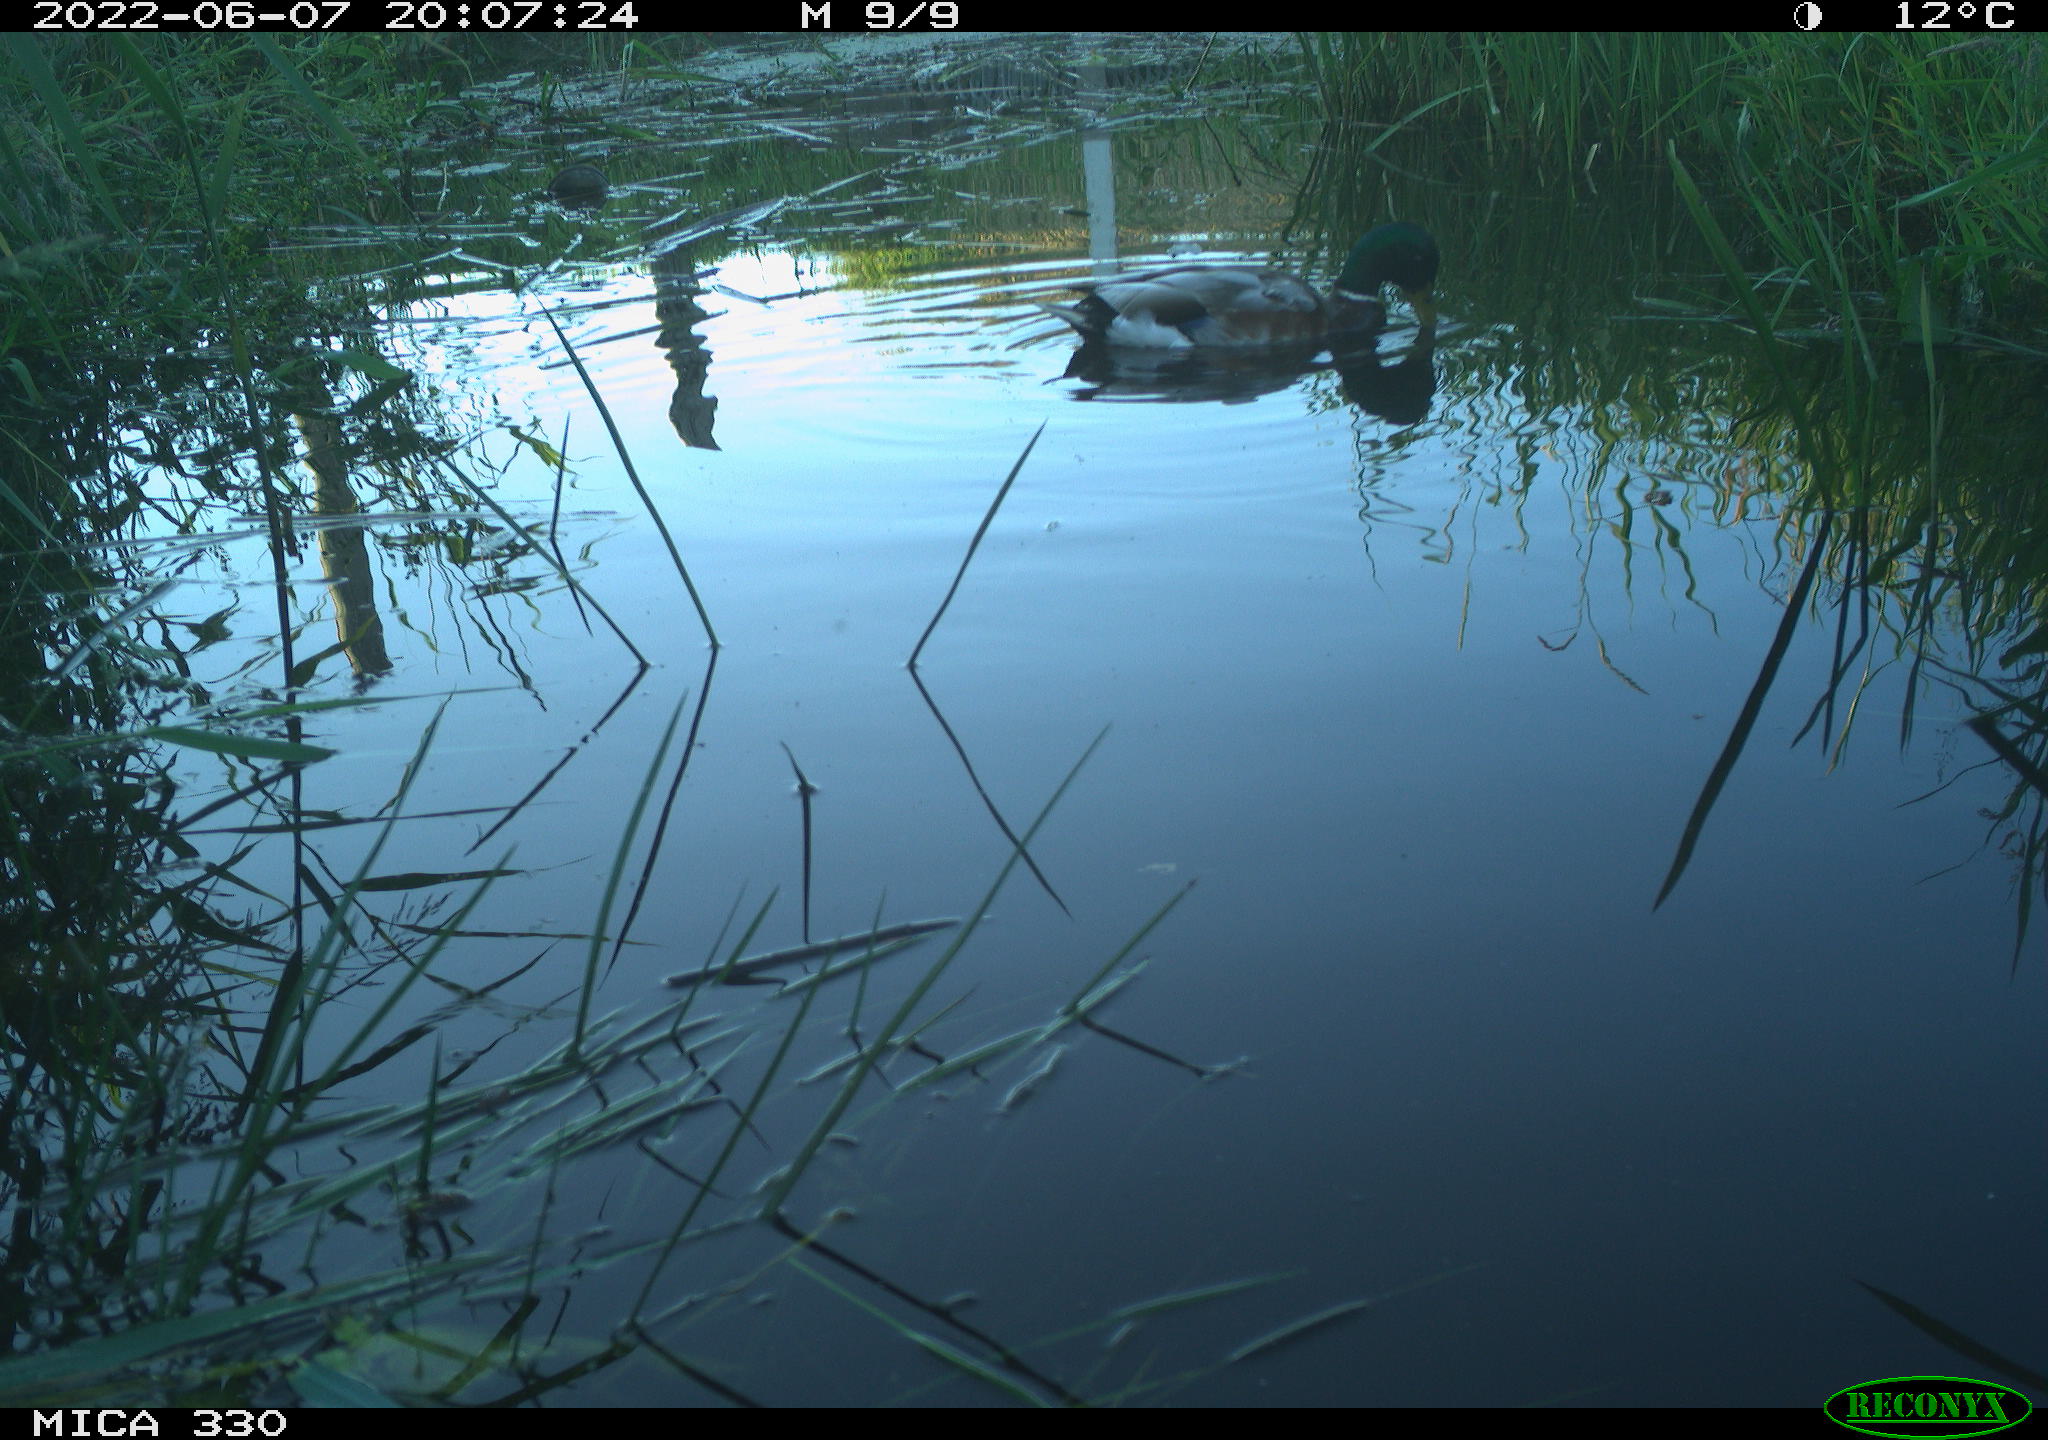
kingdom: Animalia
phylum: Chordata
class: Aves
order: Anseriformes
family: Anatidae
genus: Anas
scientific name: Anas platyrhynchos
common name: Mallard
